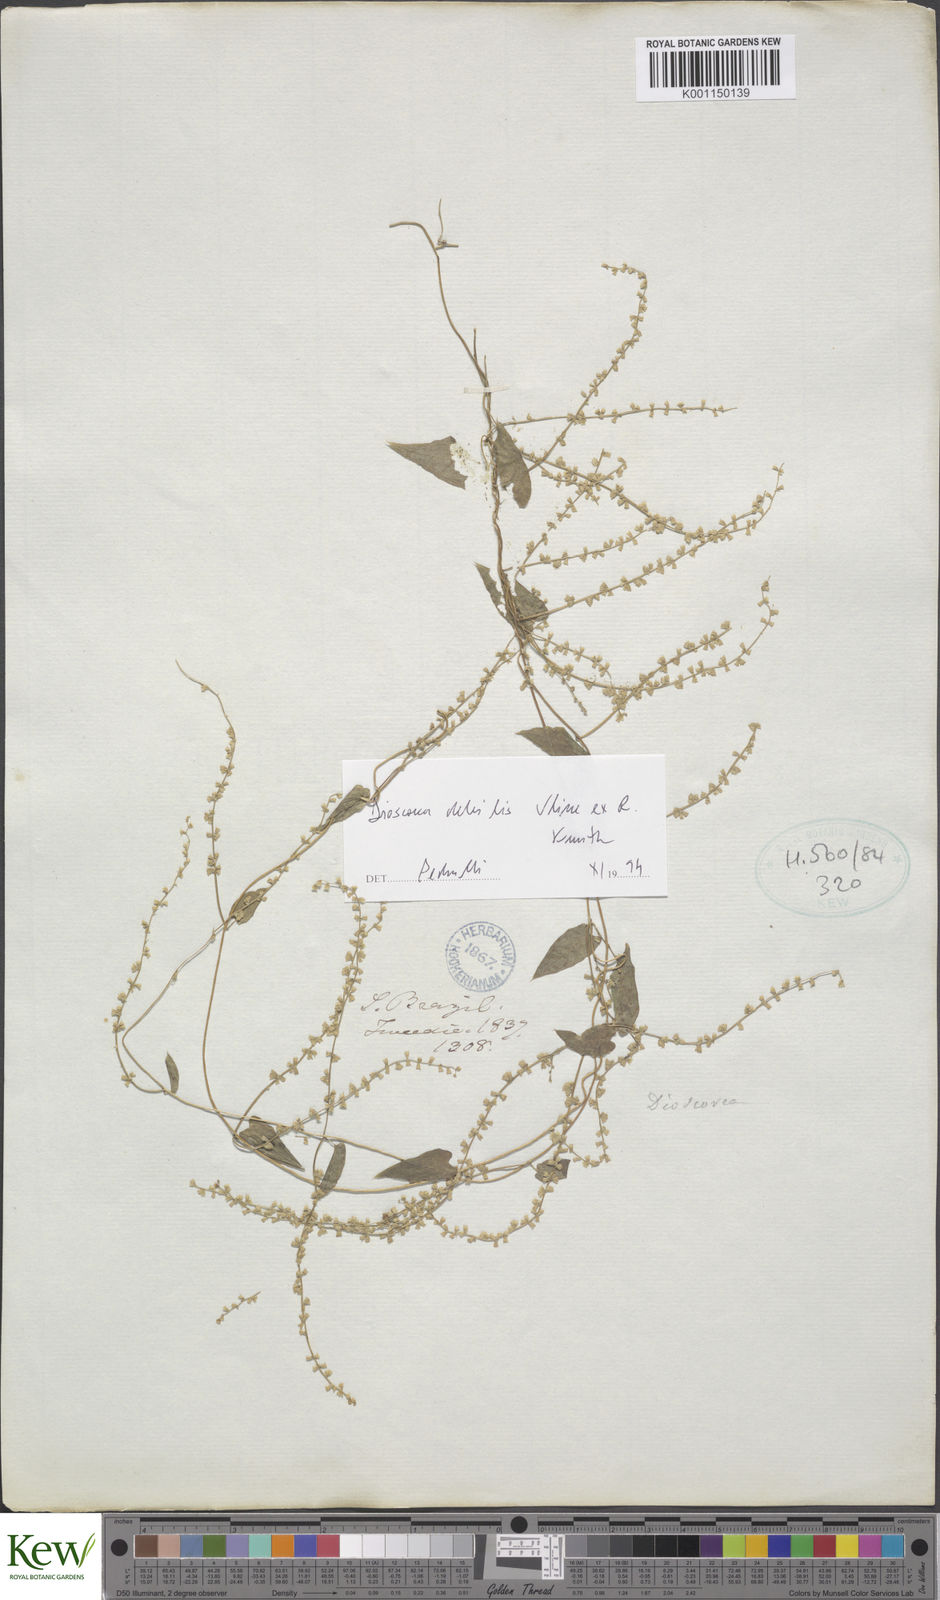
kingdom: Plantae
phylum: Tracheophyta
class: Liliopsida
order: Dioscoreales
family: Dioscoreaceae
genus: Dioscorea
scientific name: Dioscorea martiana
